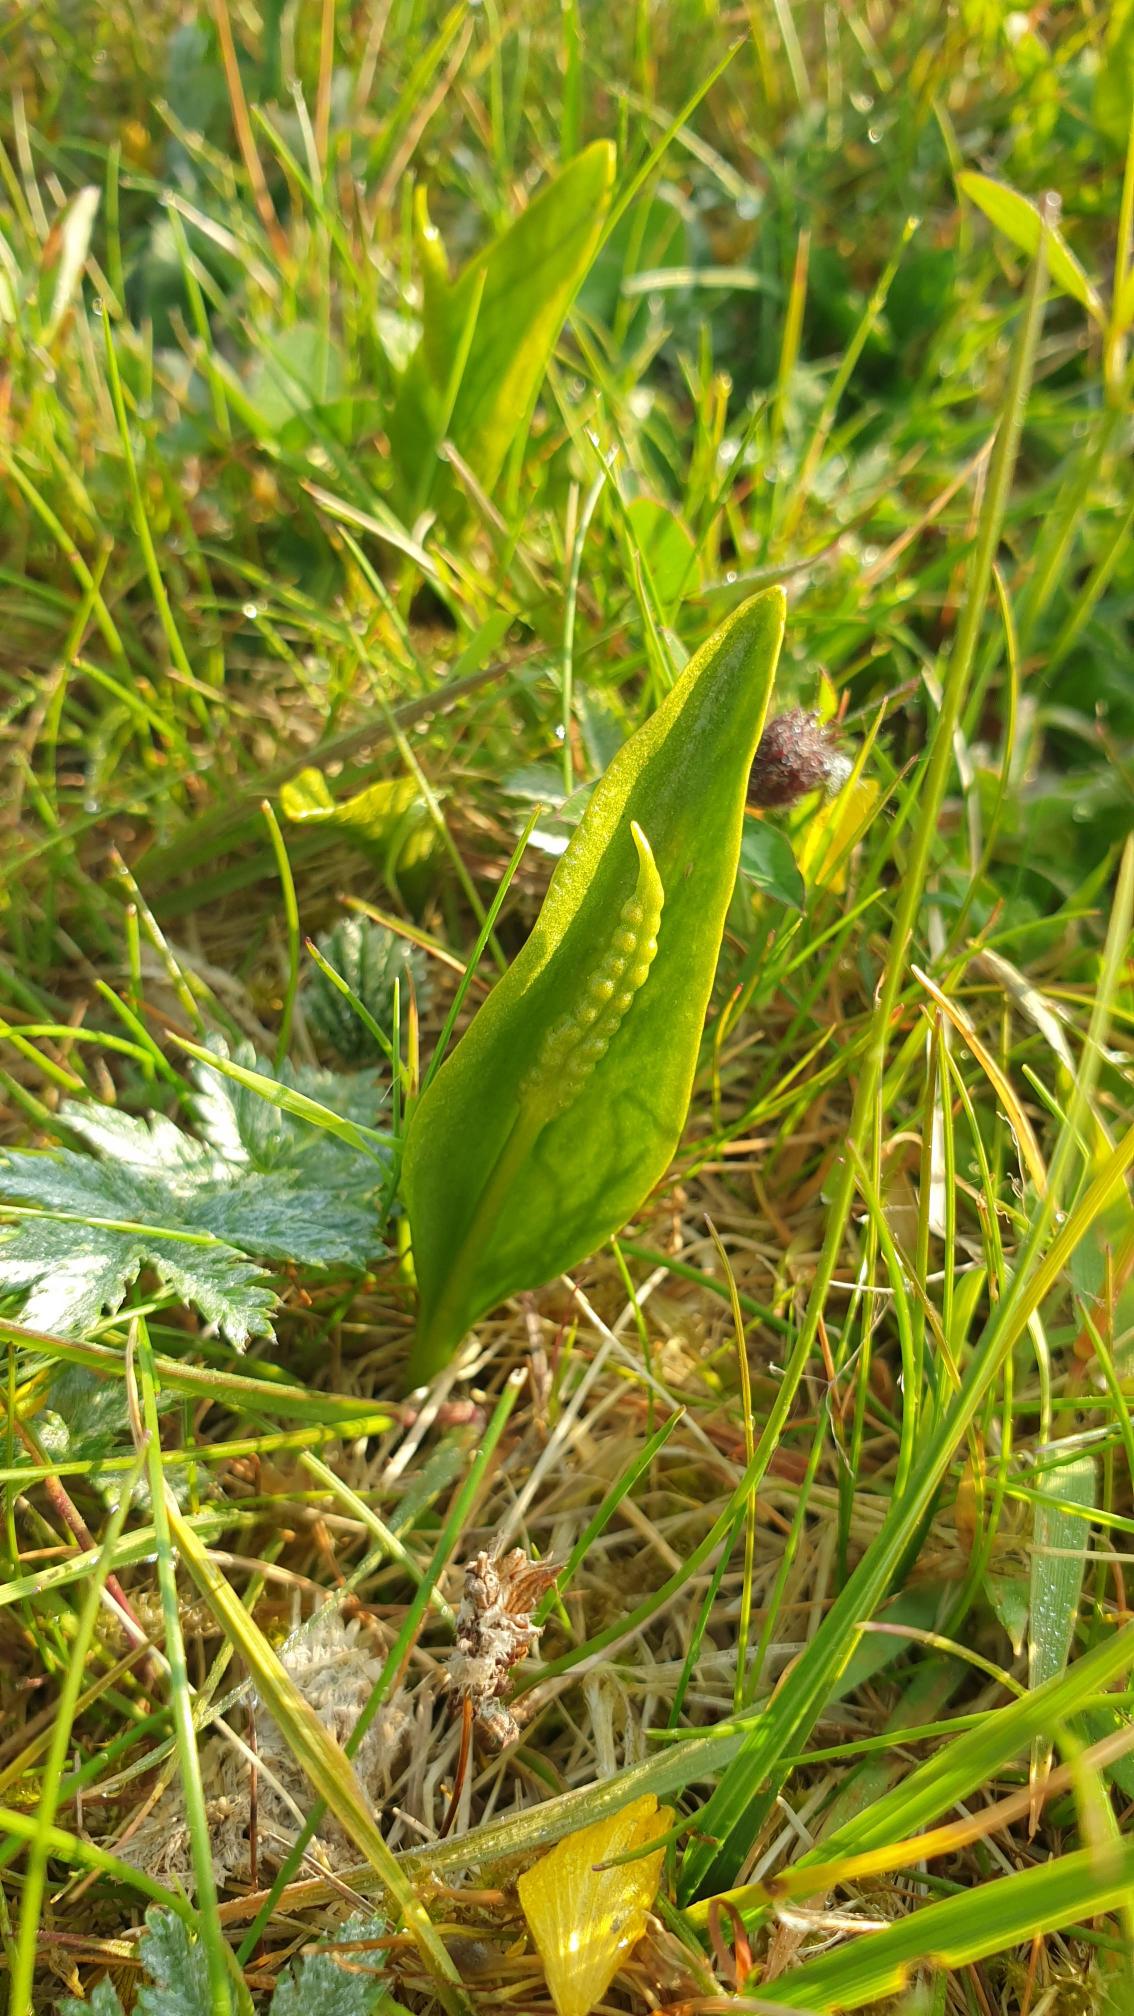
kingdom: Plantae
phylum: Tracheophyta
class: Polypodiopsida
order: Ophioglossales
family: Ophioglossaceae
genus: Ophioglossum
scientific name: Ophioglossum vulgatum
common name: Slangetunge
